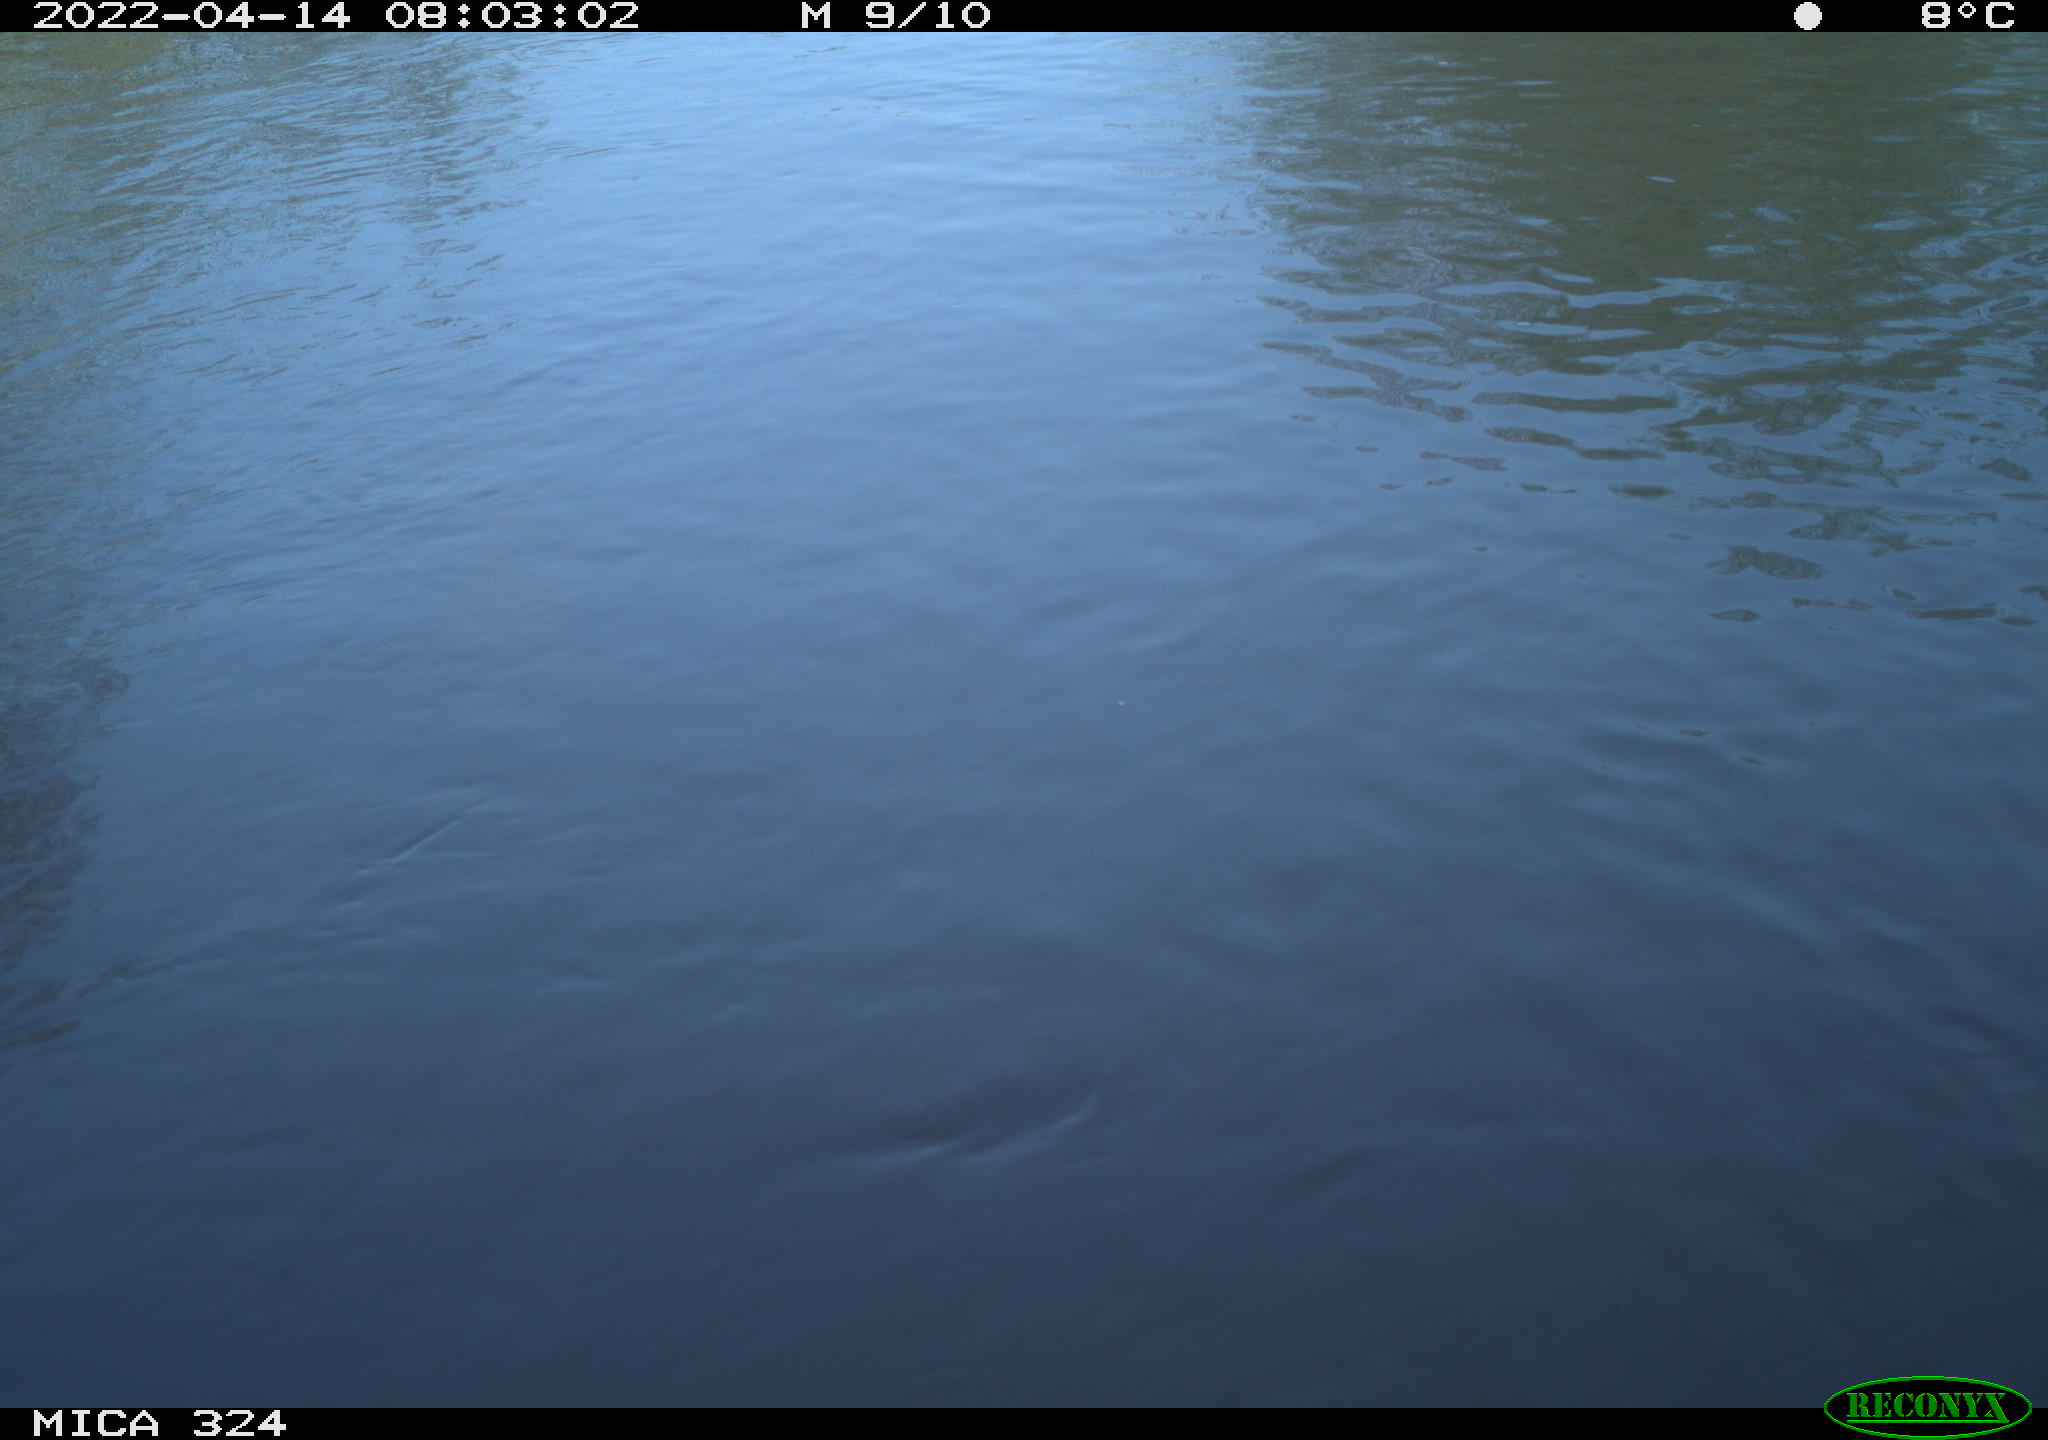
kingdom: Animalia
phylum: Chordata
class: Mammalia
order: Rodentia
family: Cricetidae
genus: Ondatra
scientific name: Ondatra zibethicus
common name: Muskrat
